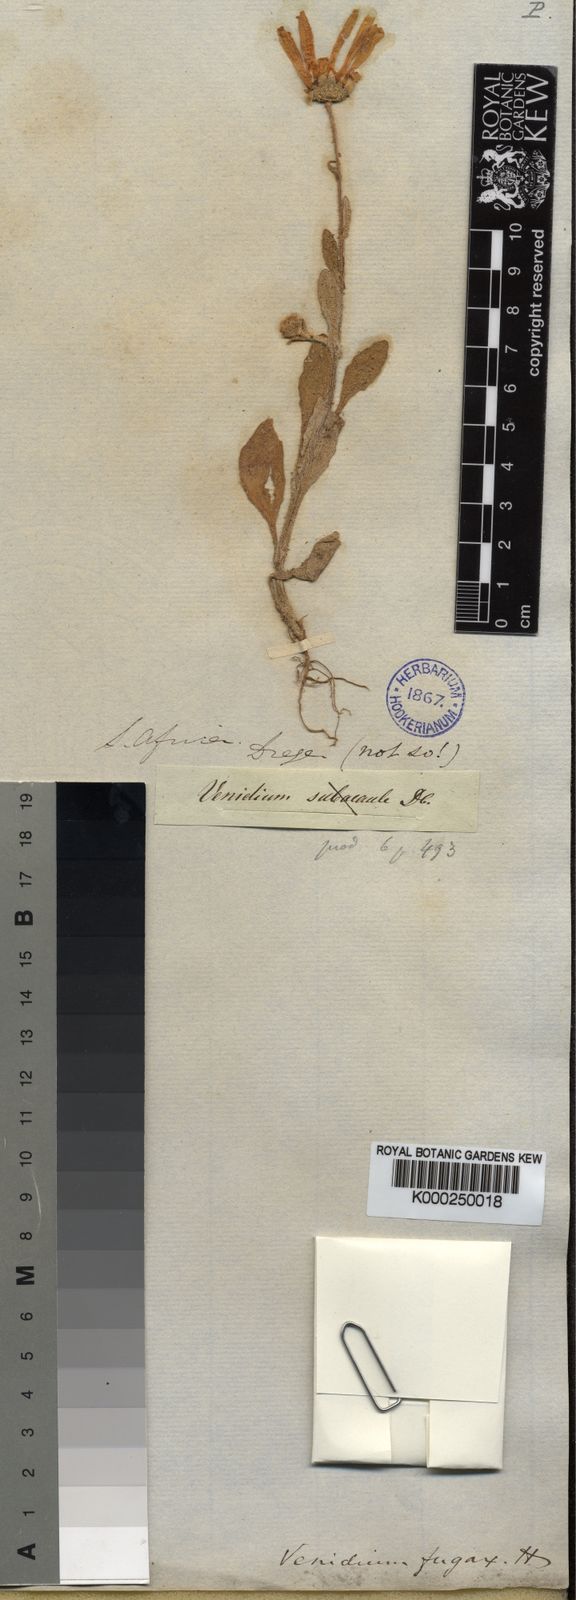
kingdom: Plantae
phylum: Tracheophyta
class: Magnoliopsida
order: Asterales
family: Asteraceae
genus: Arctotis
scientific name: Arctotis hirsuta
